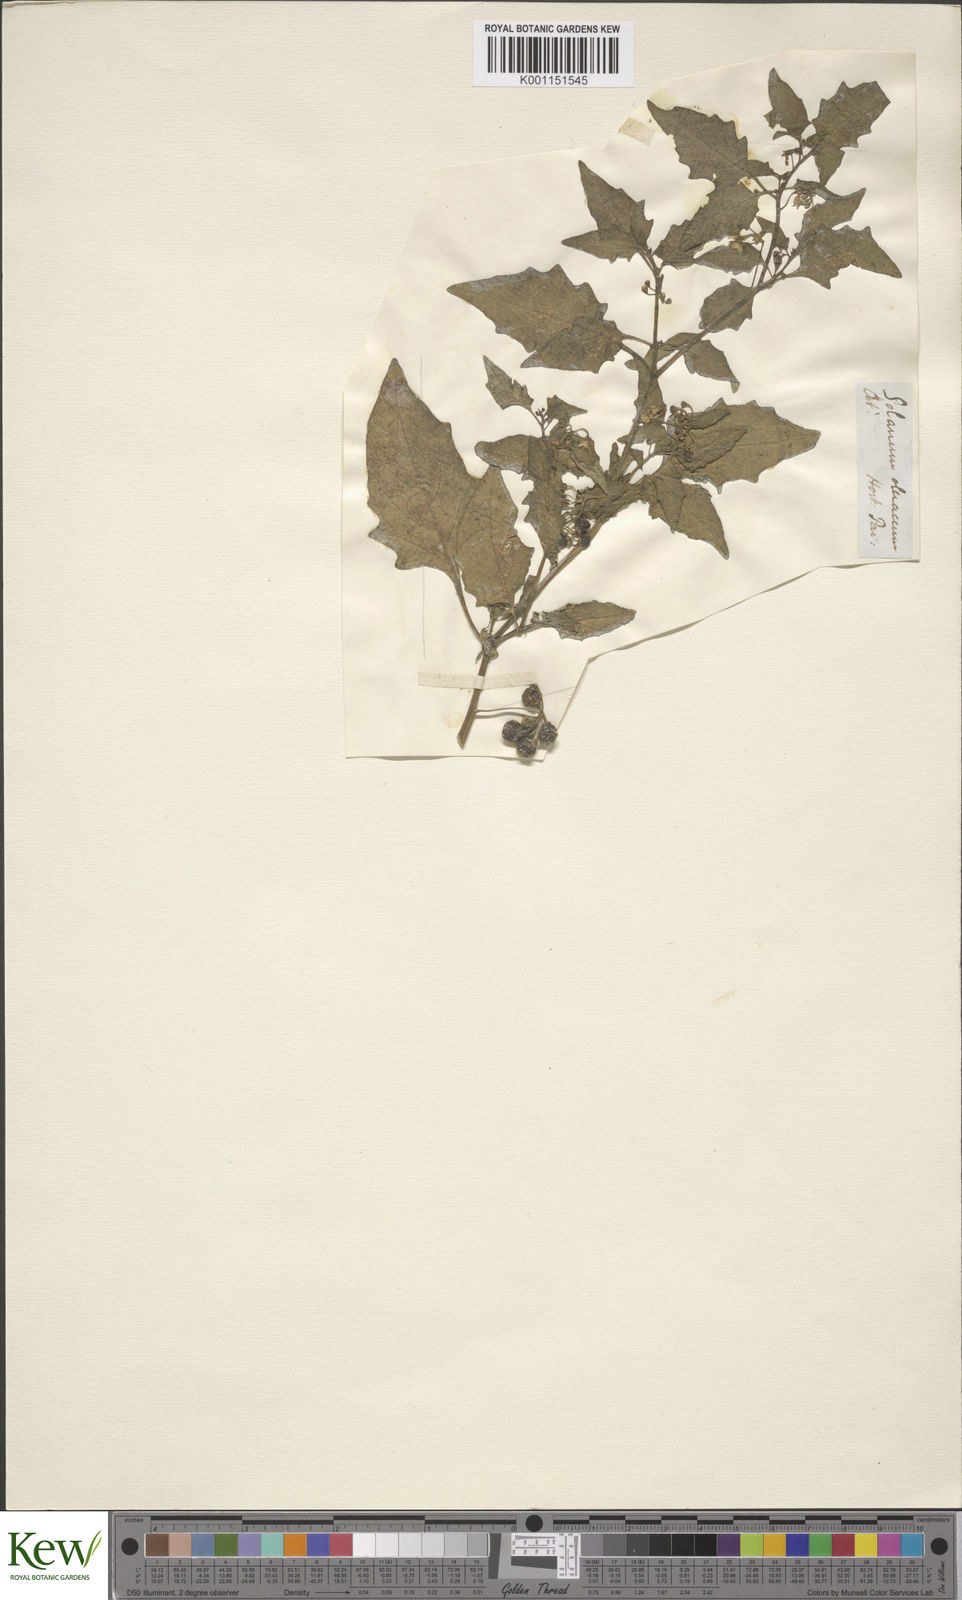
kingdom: Plantae
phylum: Tracheophyta
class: Magnoliopsida
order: Solanales
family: Solanaceae
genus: Solanum
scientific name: Solanum americanum
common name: American black nightshade
